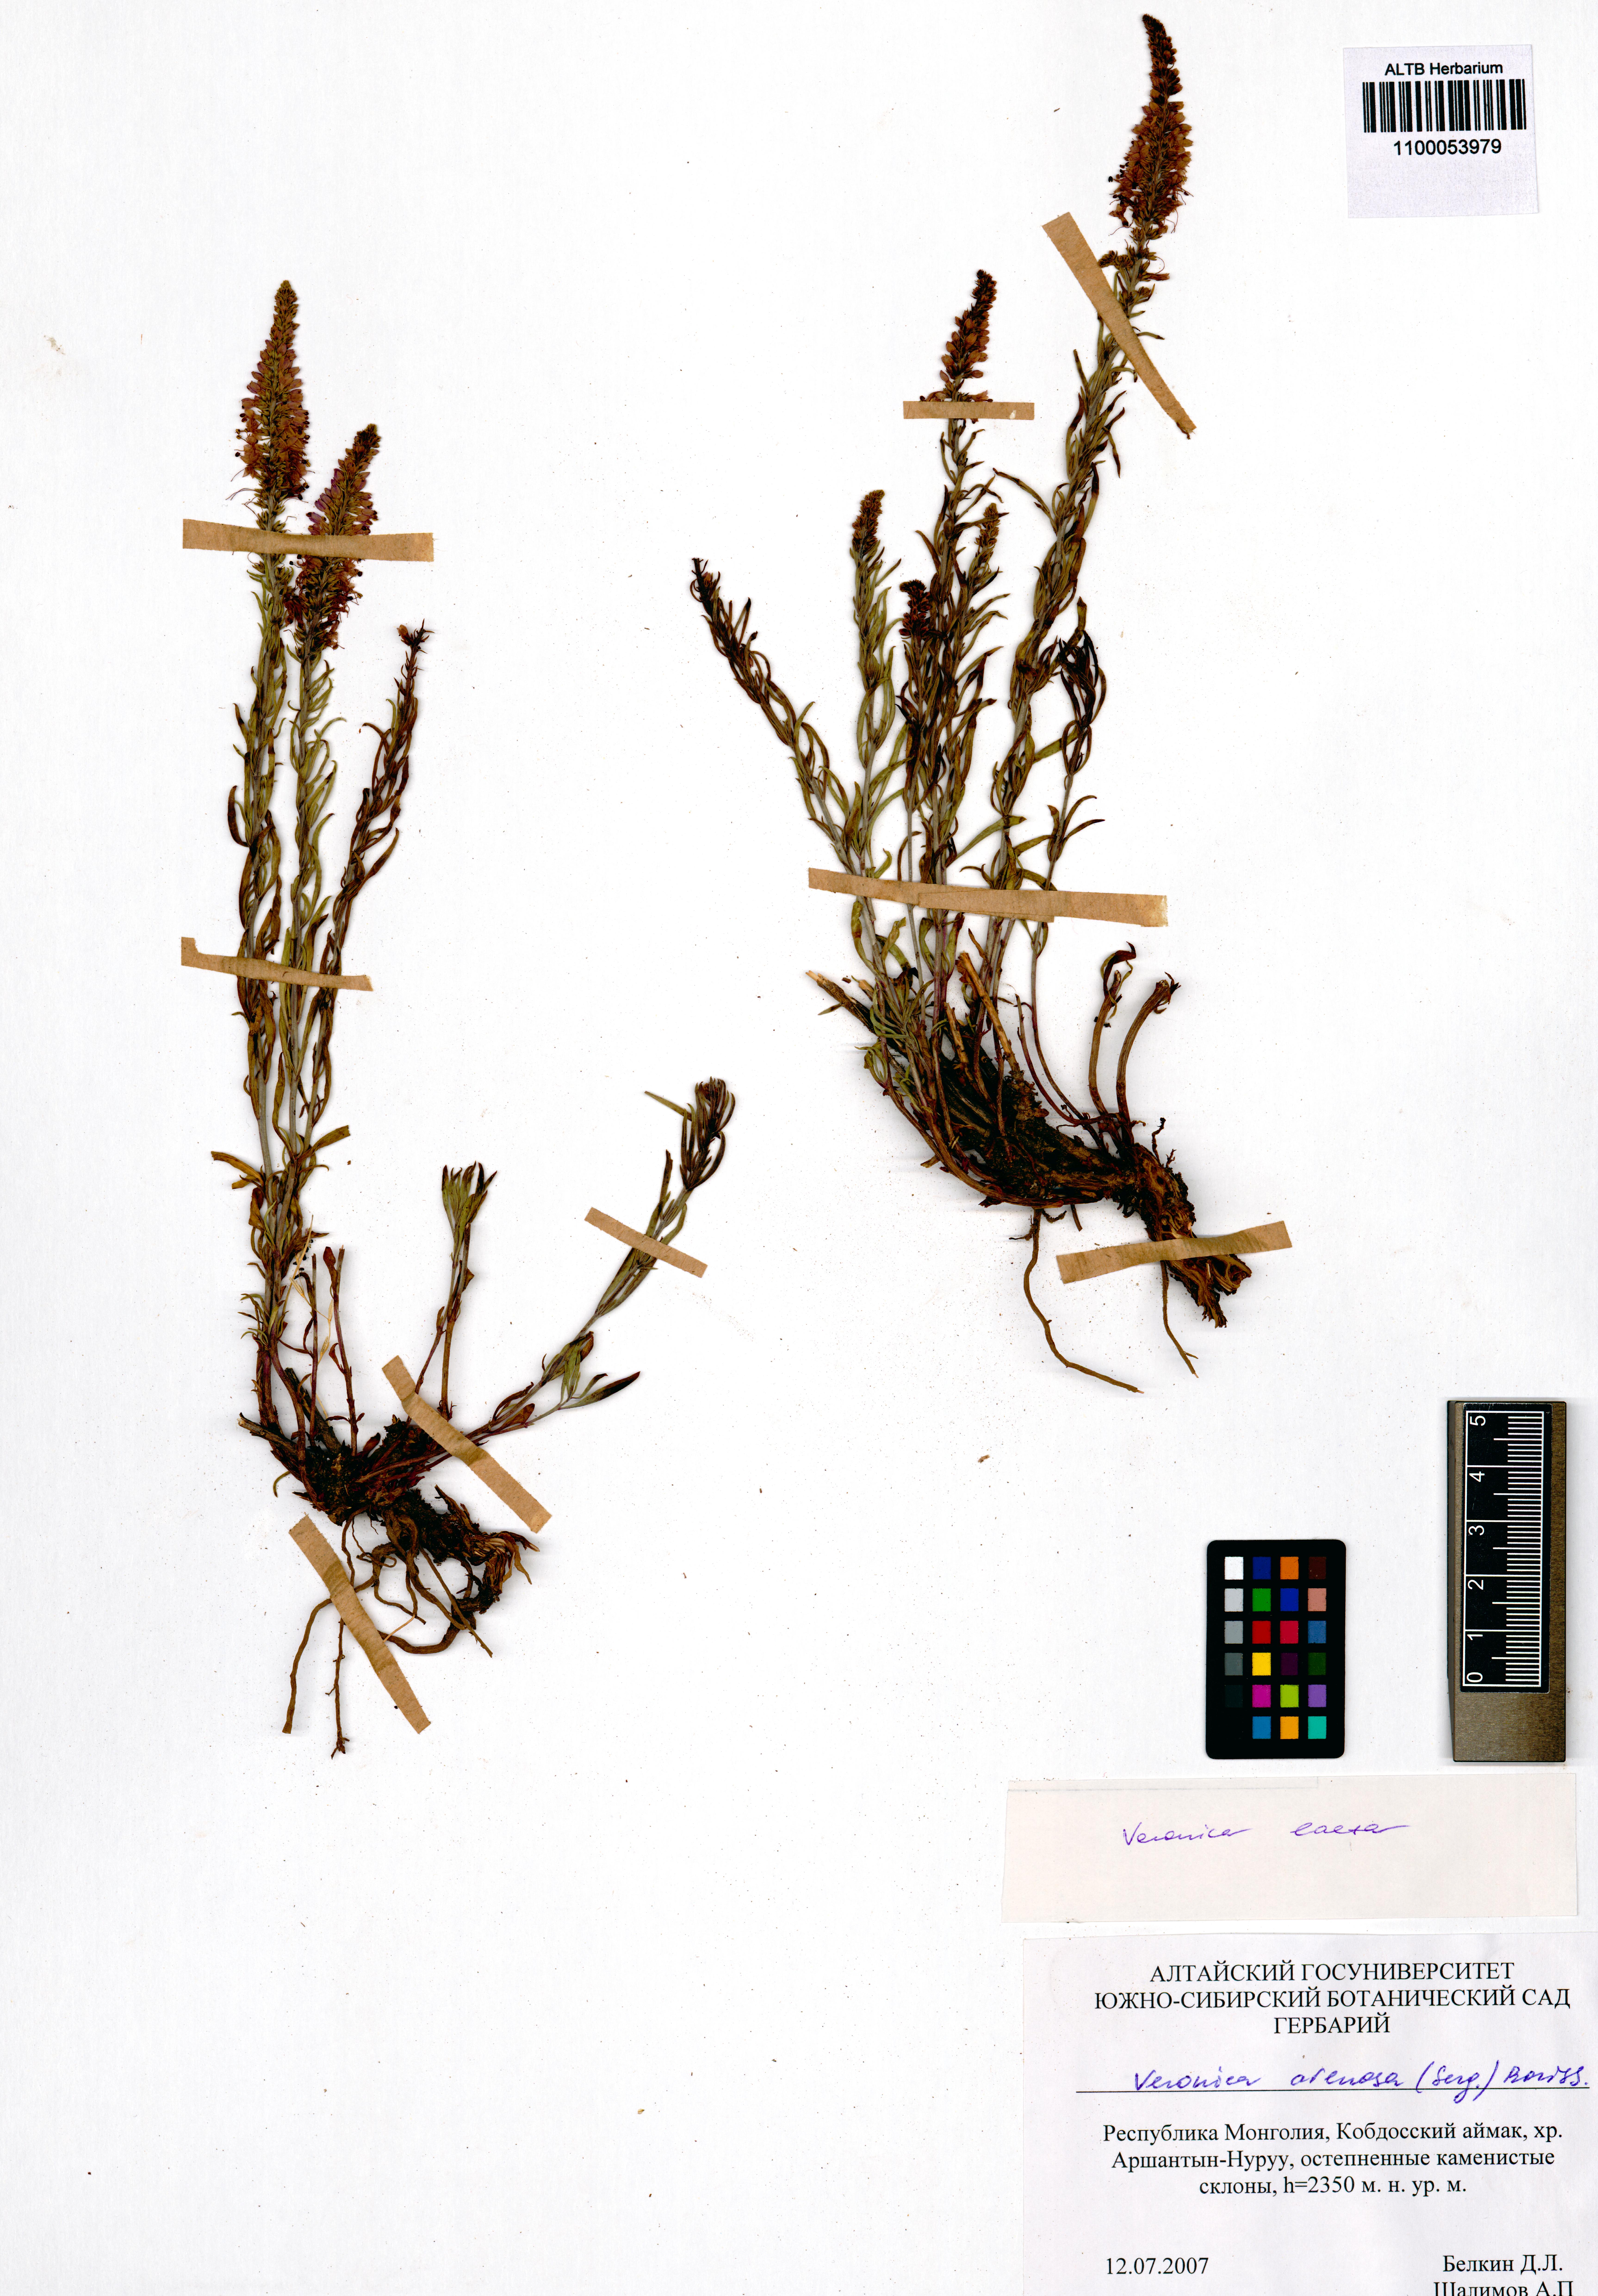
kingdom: Plantae
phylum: Tracheophyta
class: Magnoliopsida
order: Lamiales
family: Plantaginaceae
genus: Veronica
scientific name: Veronica arenosa
